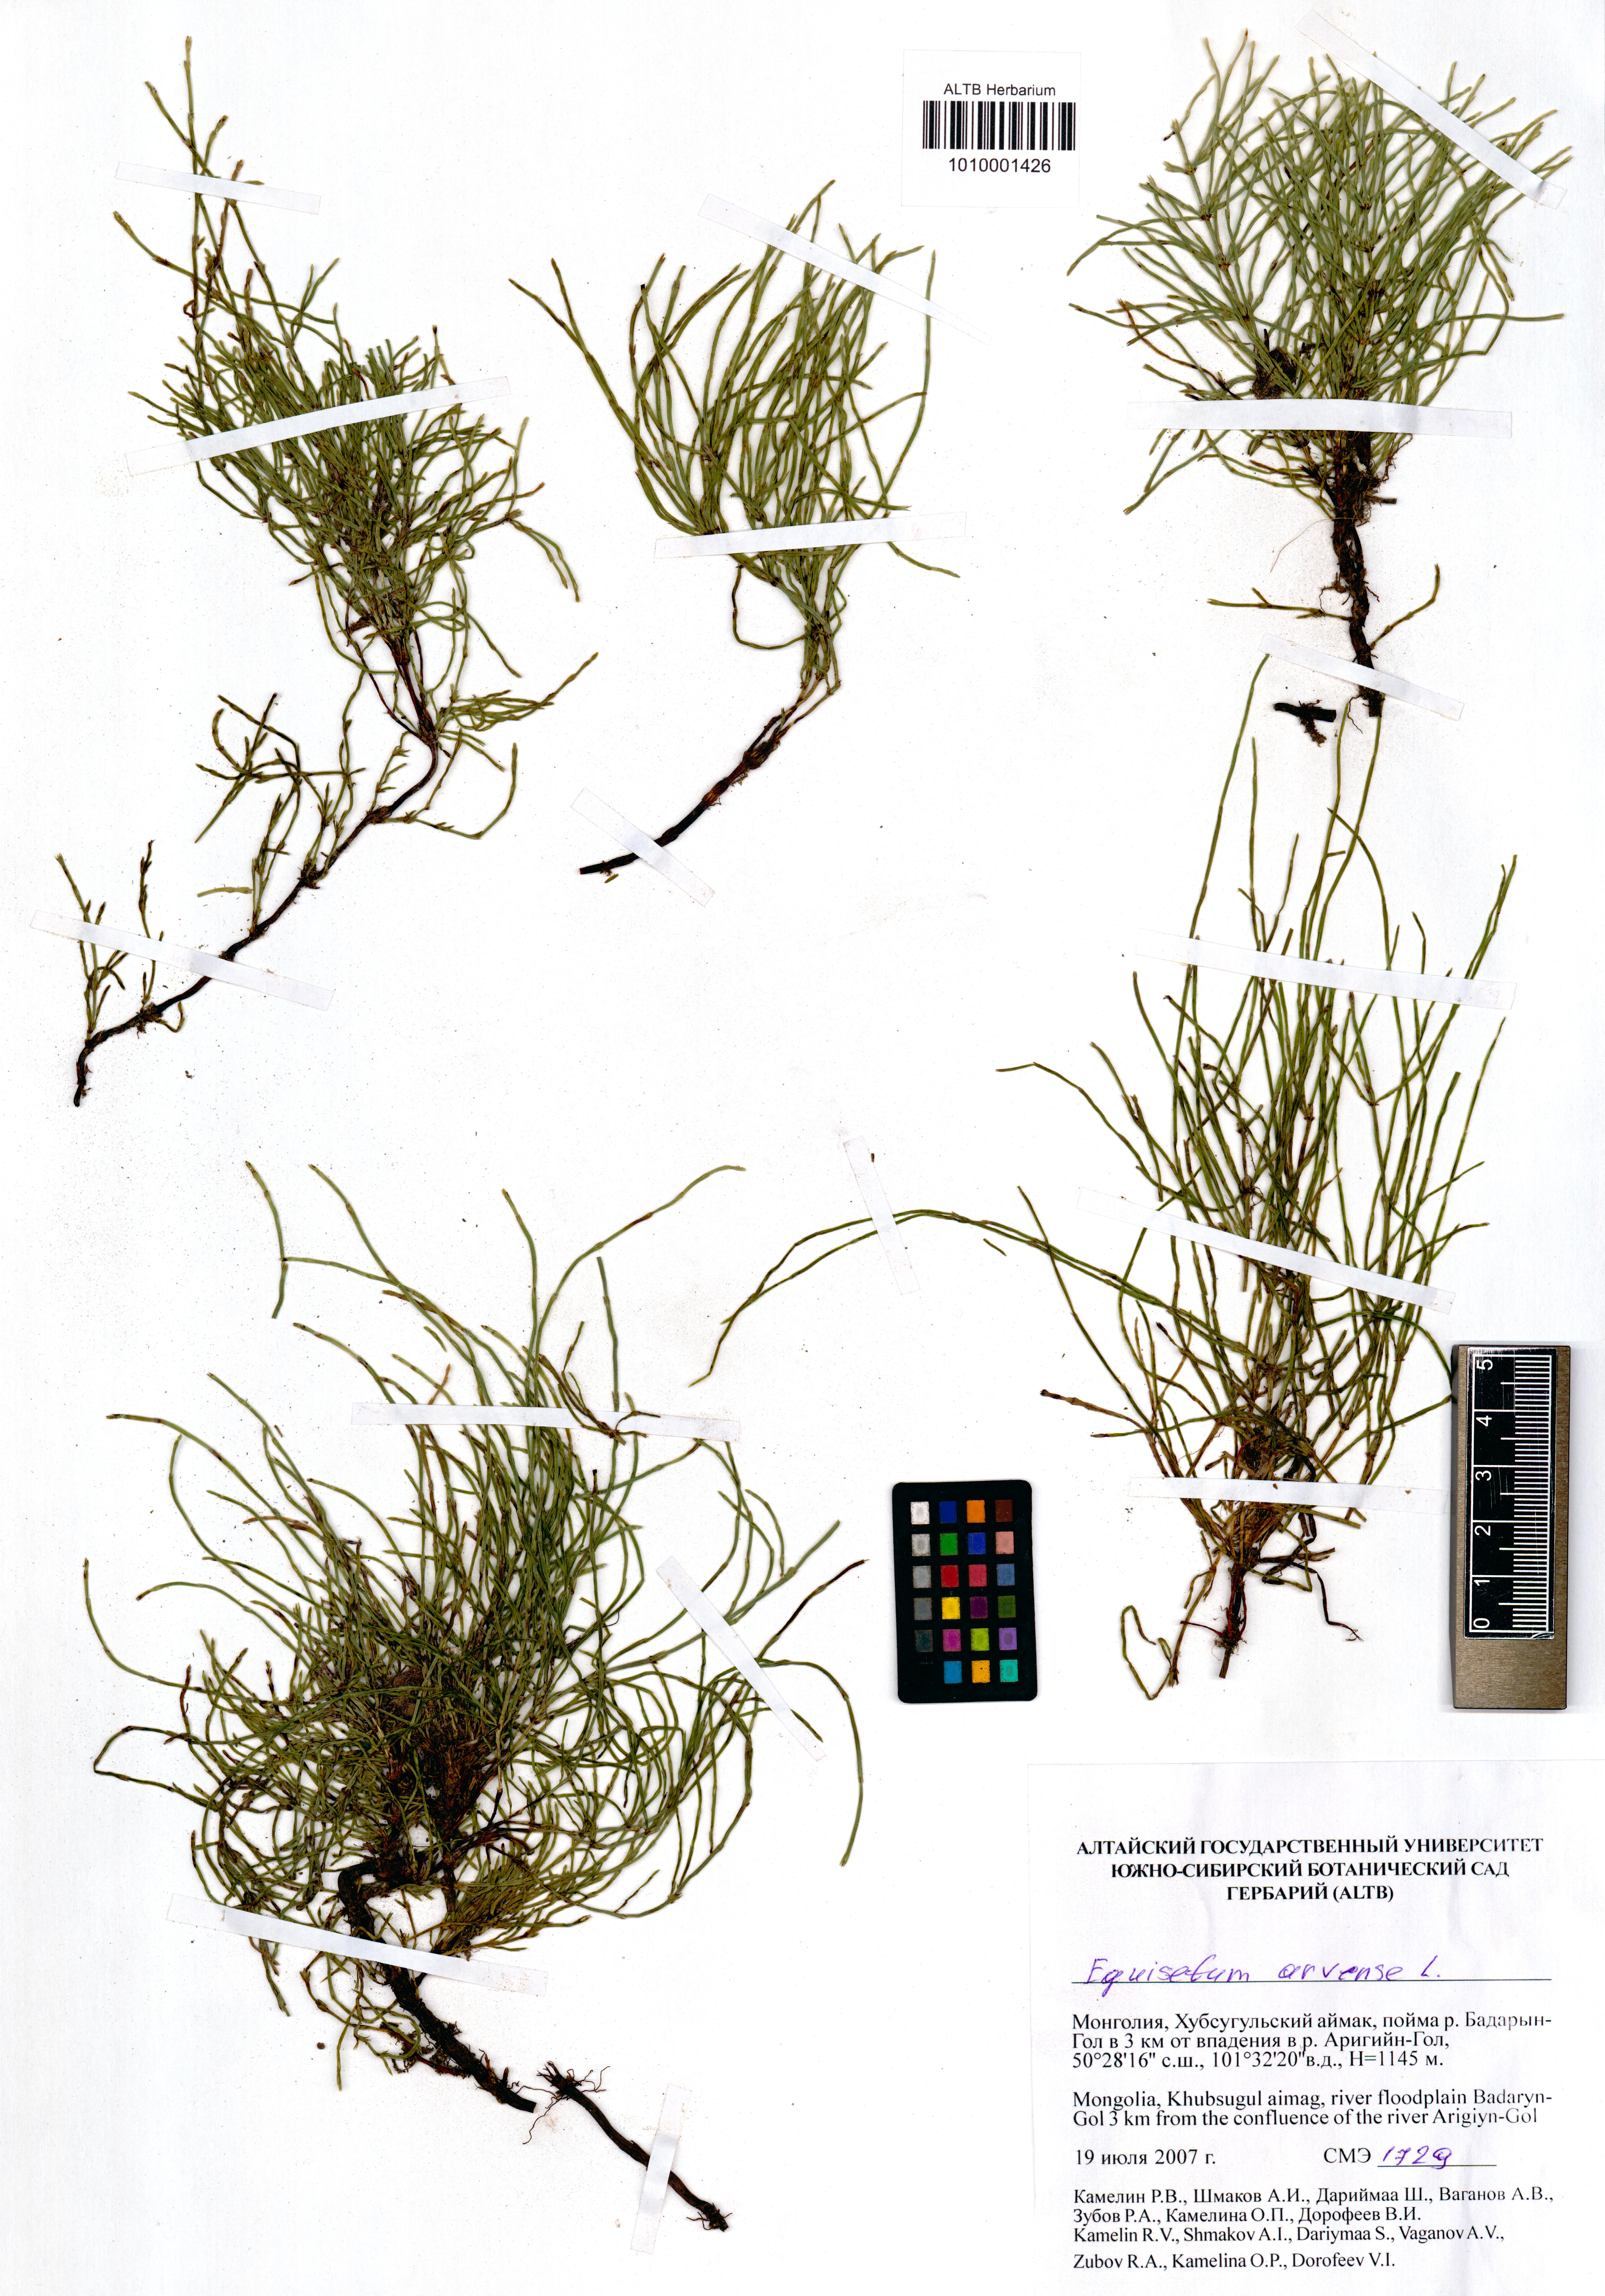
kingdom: Plantae
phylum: Tracheophyta
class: Polypodiopsida
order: Equisetales
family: Equisetaceae
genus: Equisetum
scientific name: Equisetum arvense
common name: Field horsetail
